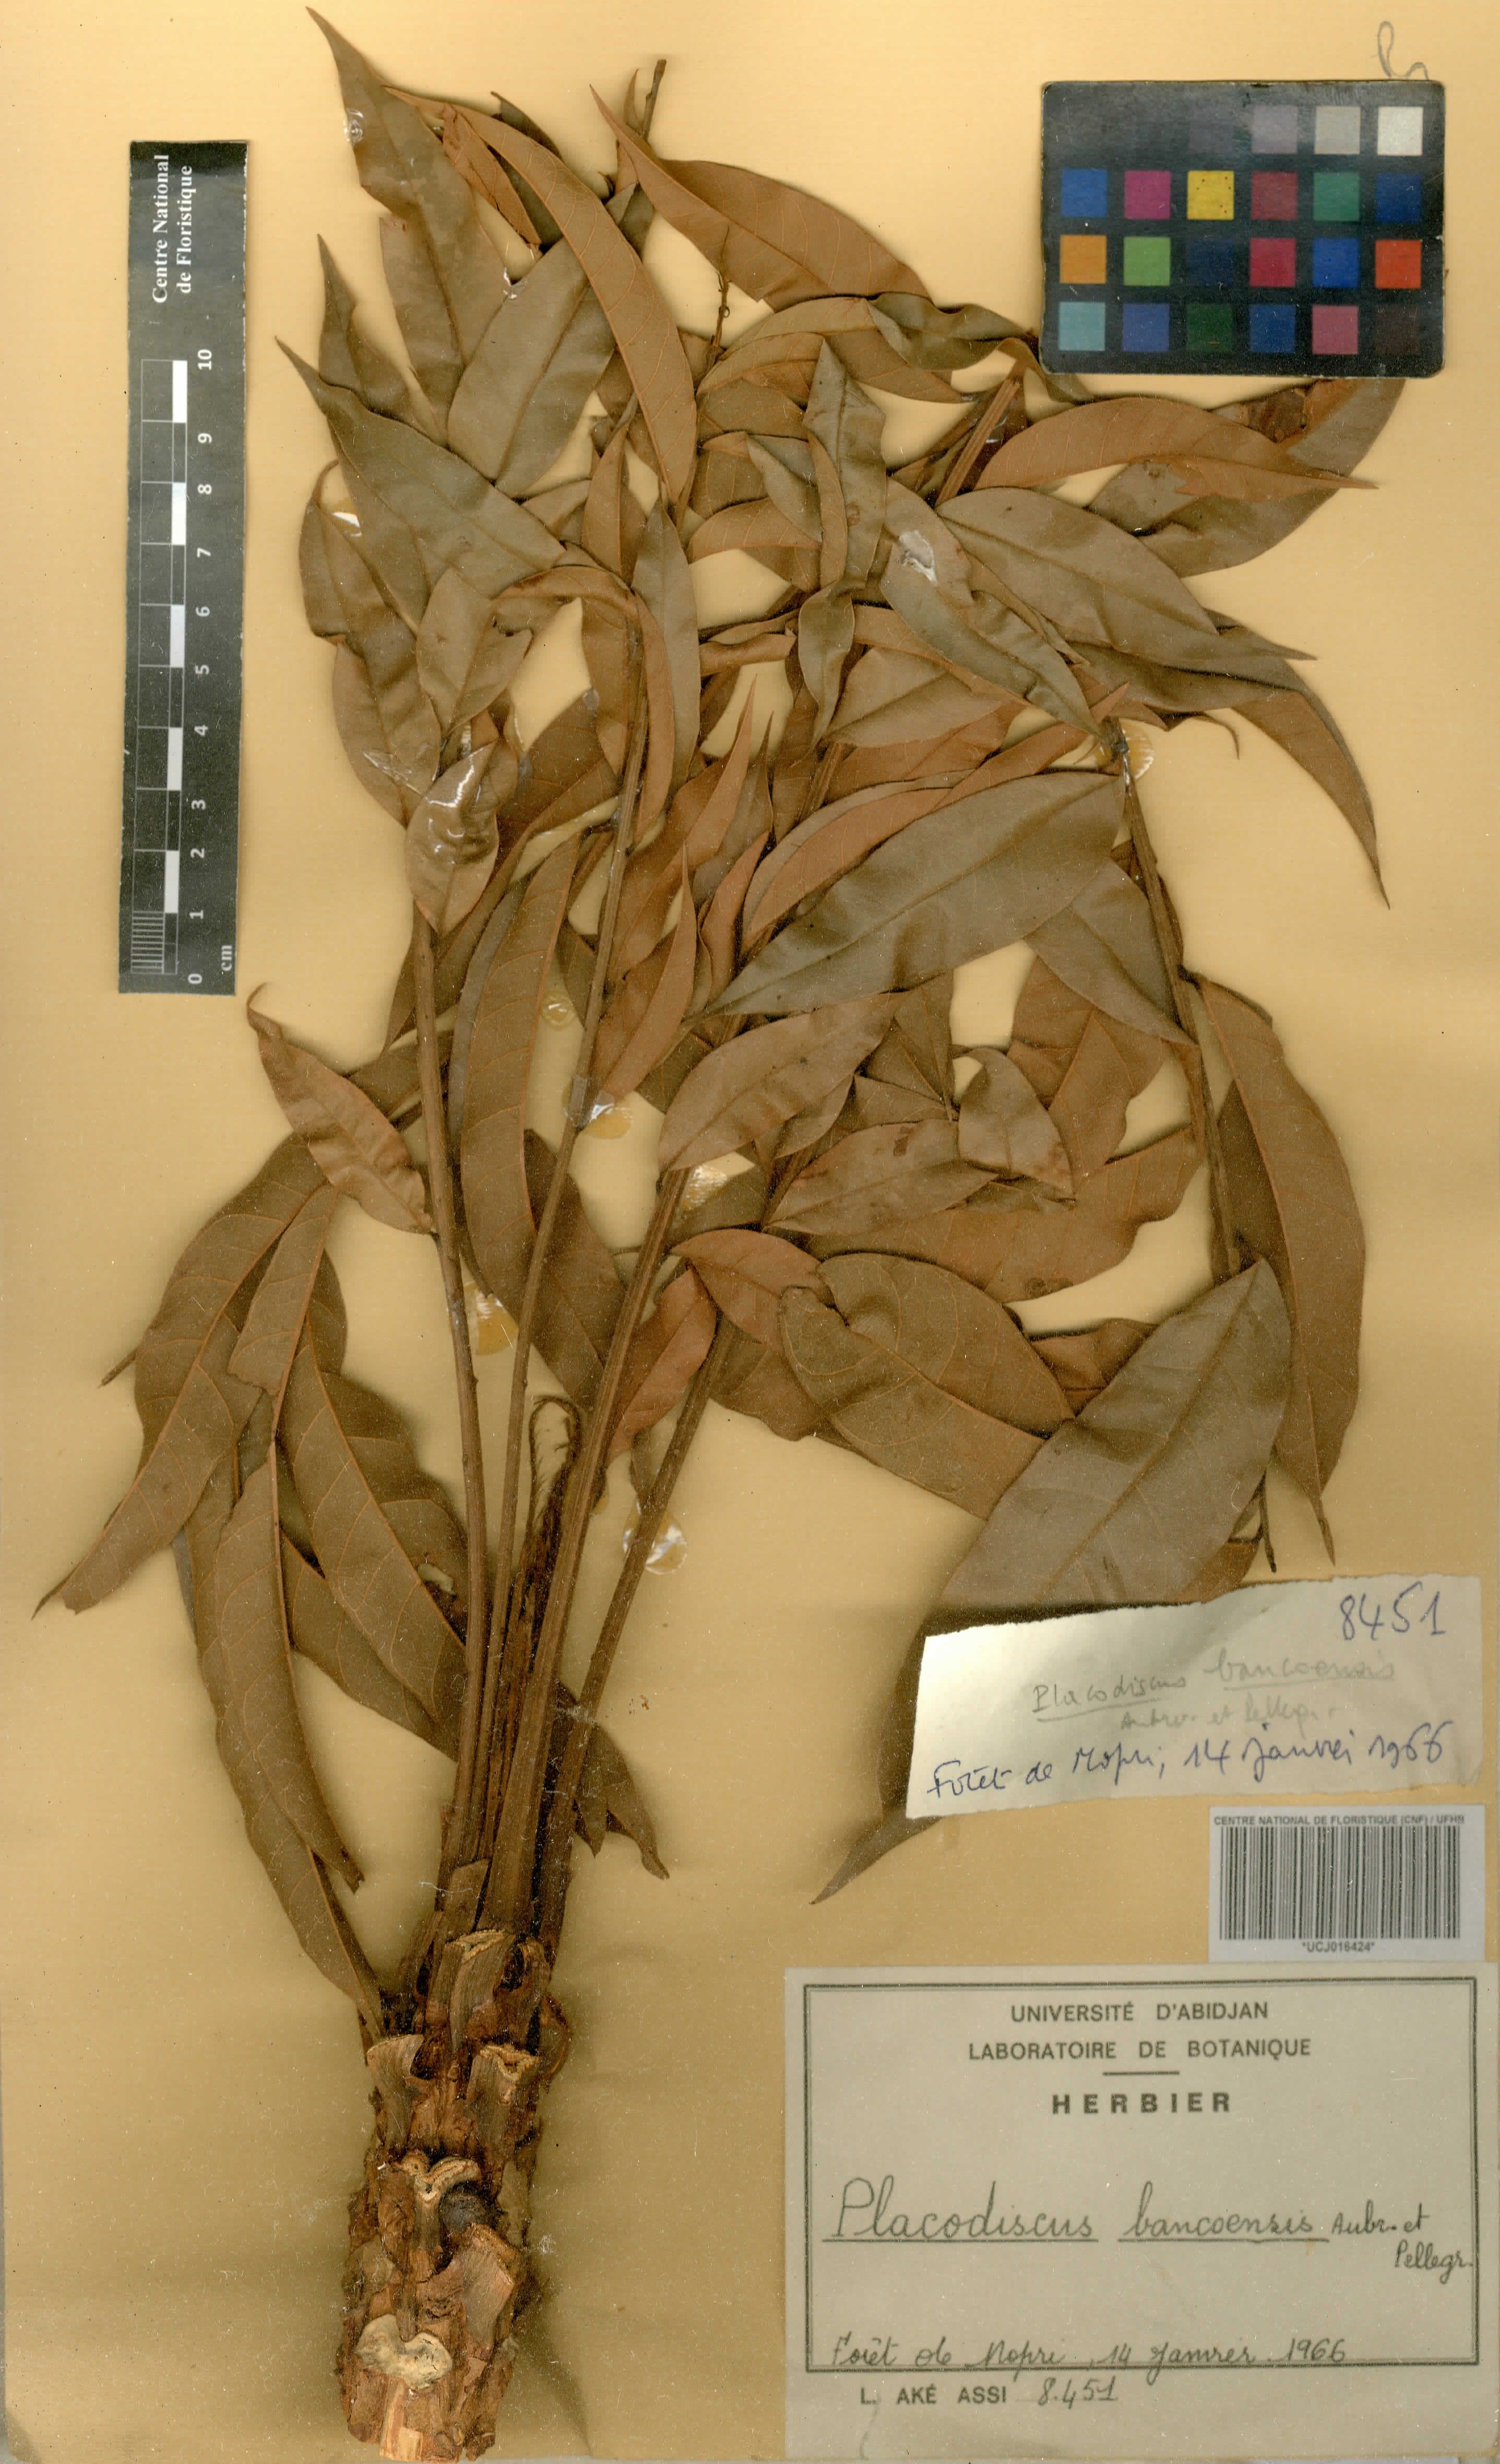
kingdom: Plantae
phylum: Tracheophyta
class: Magnoliopsida
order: Sapindales
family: Sapindaceae
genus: Placodiscus
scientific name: Placodiscus bancoensis
